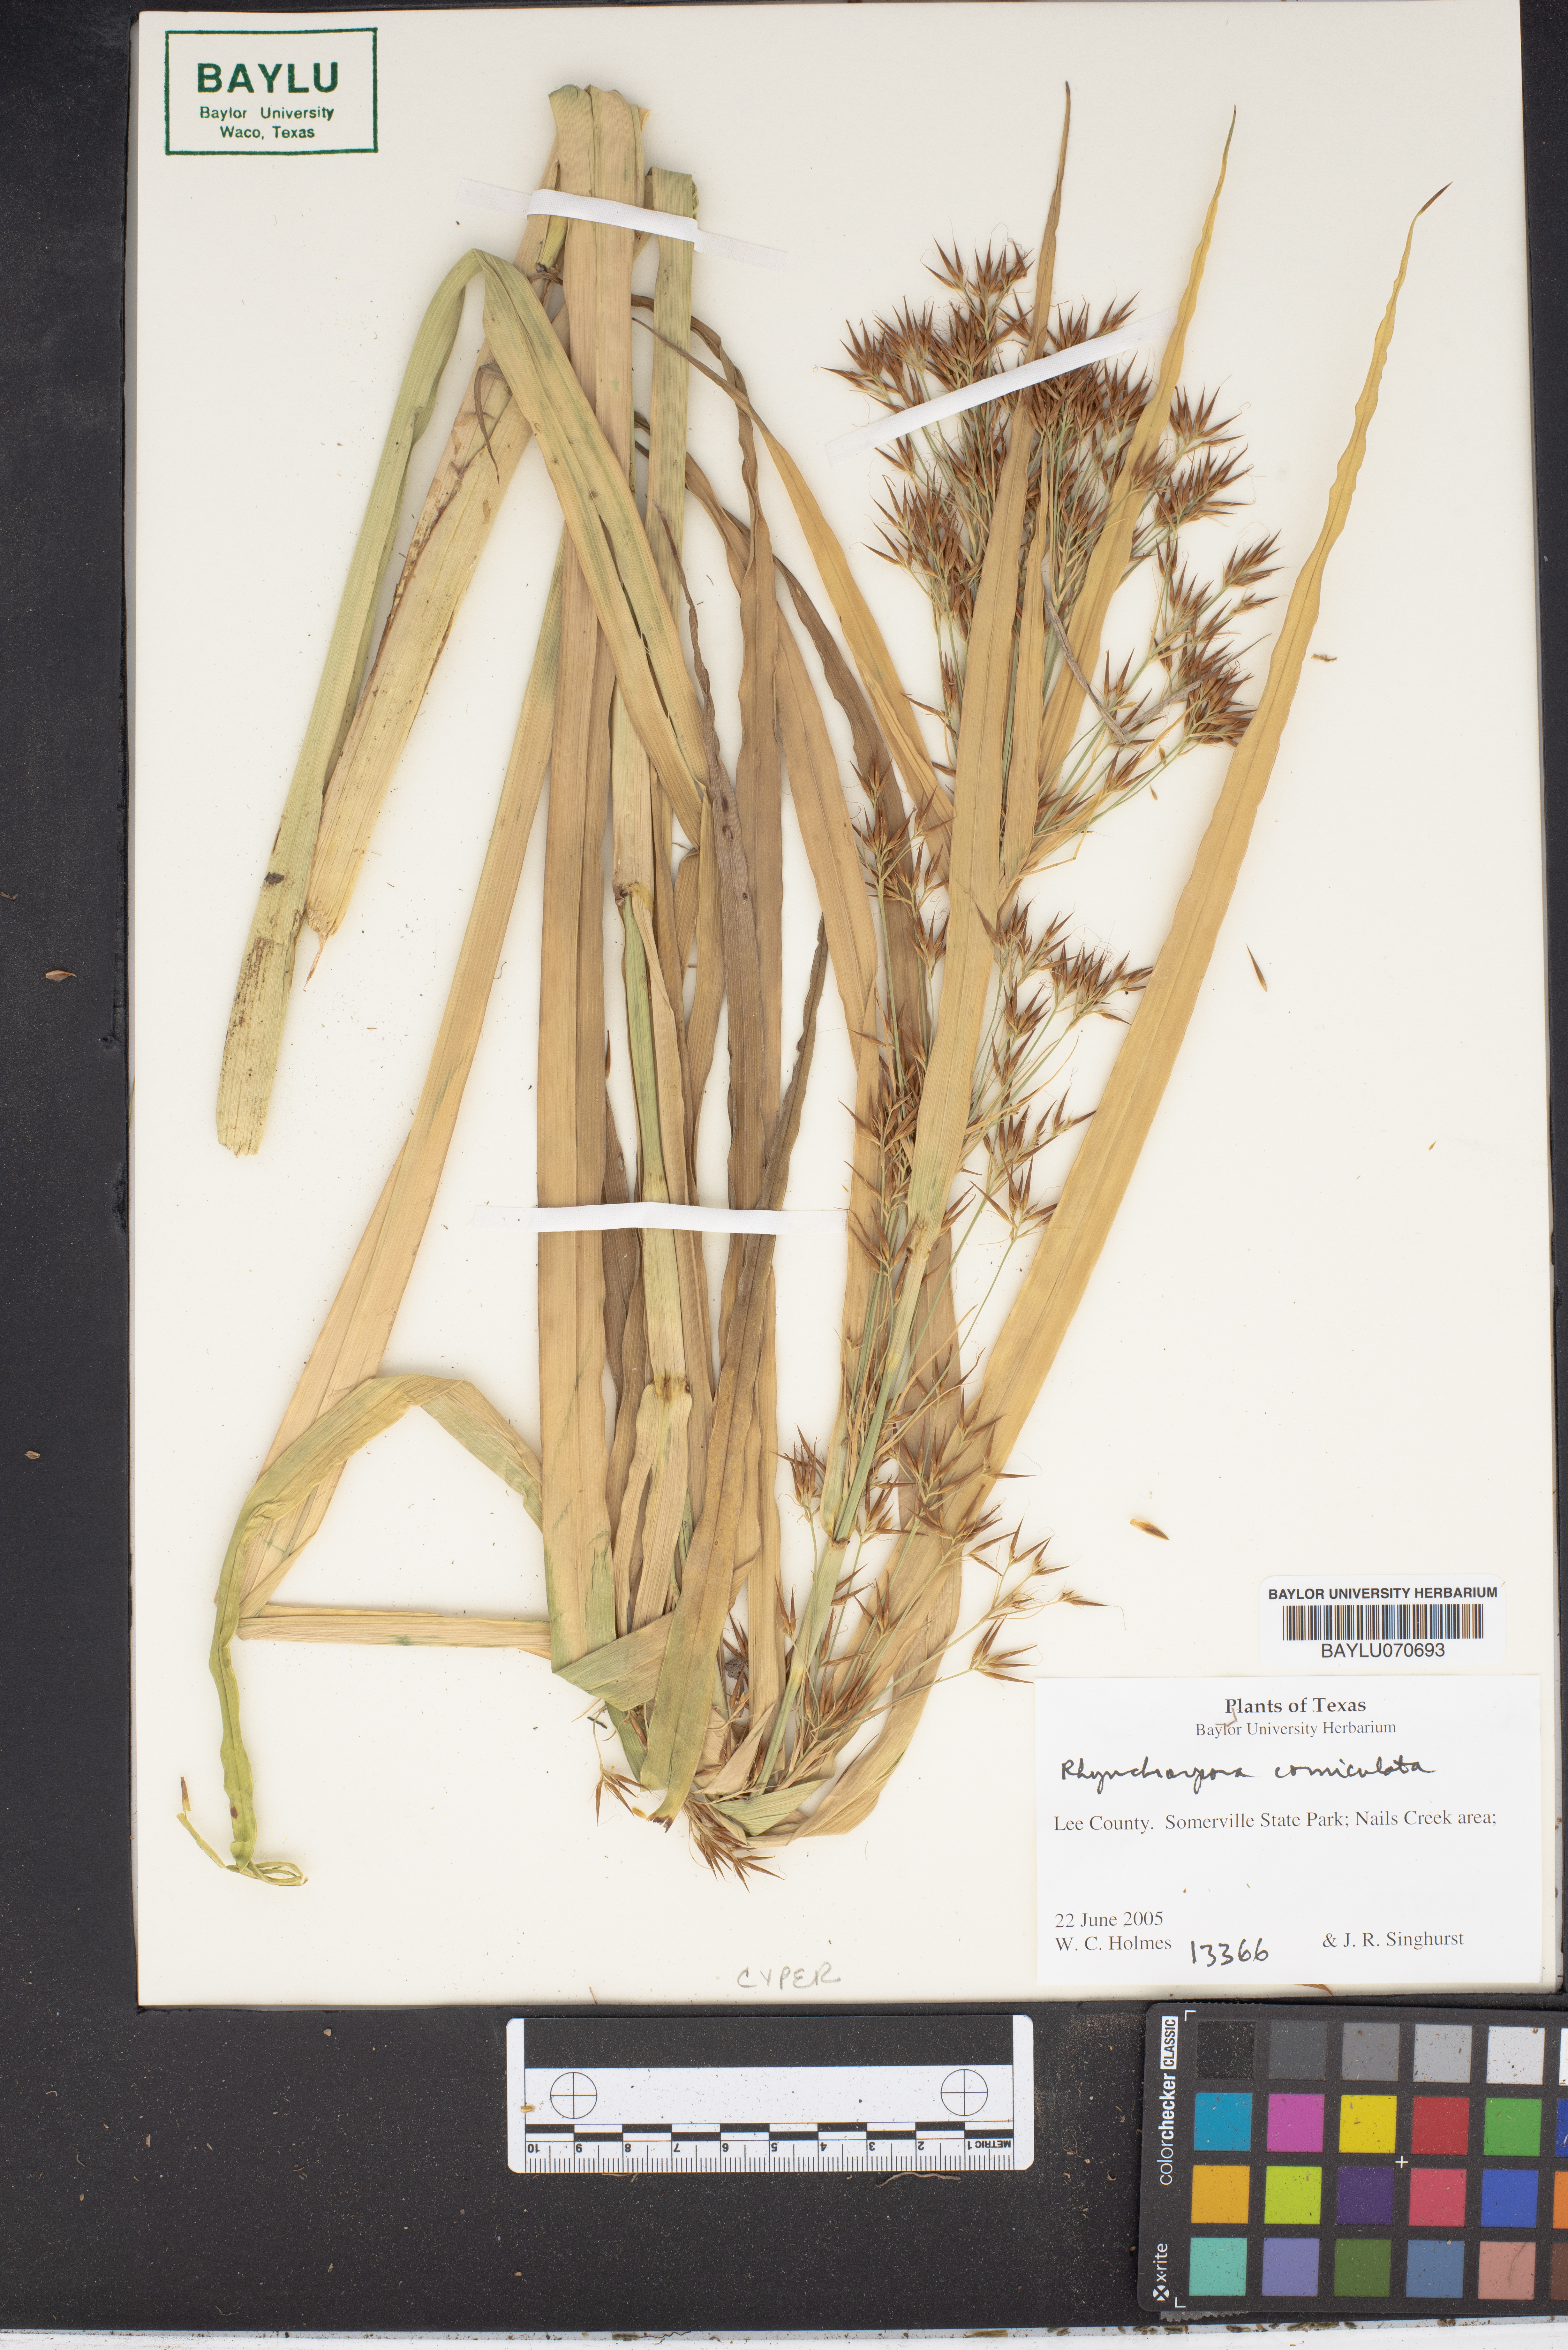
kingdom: Plantae
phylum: Tracheophyta
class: Liliopsida
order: Poales
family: Cyperaceae
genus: Rhynchospora
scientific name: Rhynchospora corniculata
